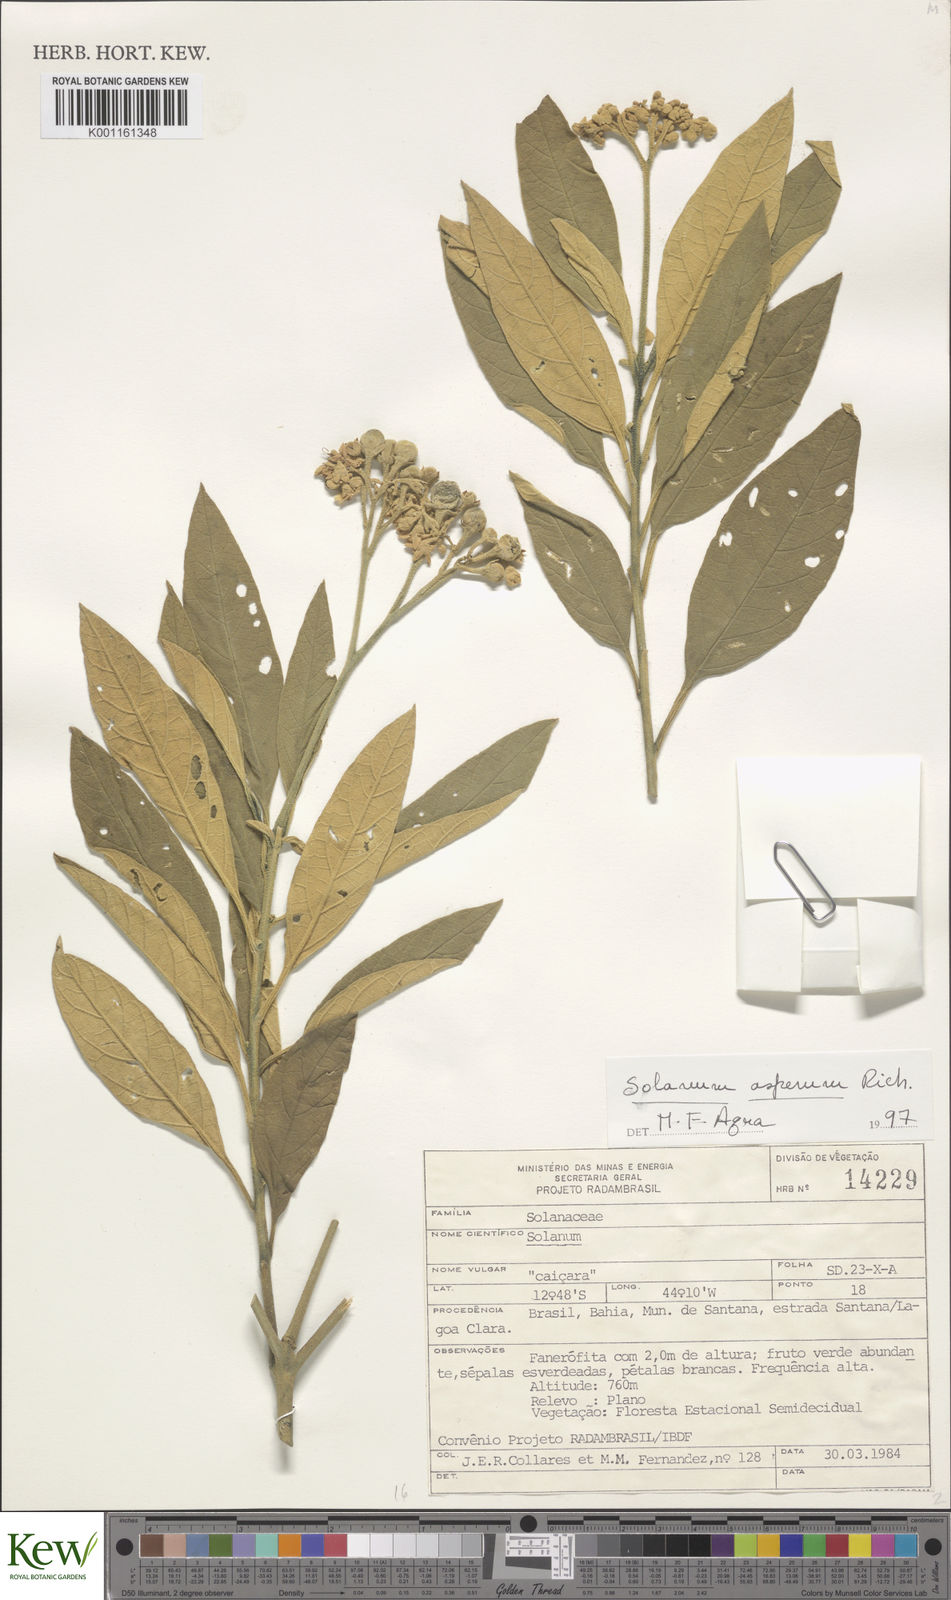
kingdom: Plantae
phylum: Tracheophyta
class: Magnoliopsida
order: Solanales
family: Solanaceae
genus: Solanum
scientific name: Solanum asperum
